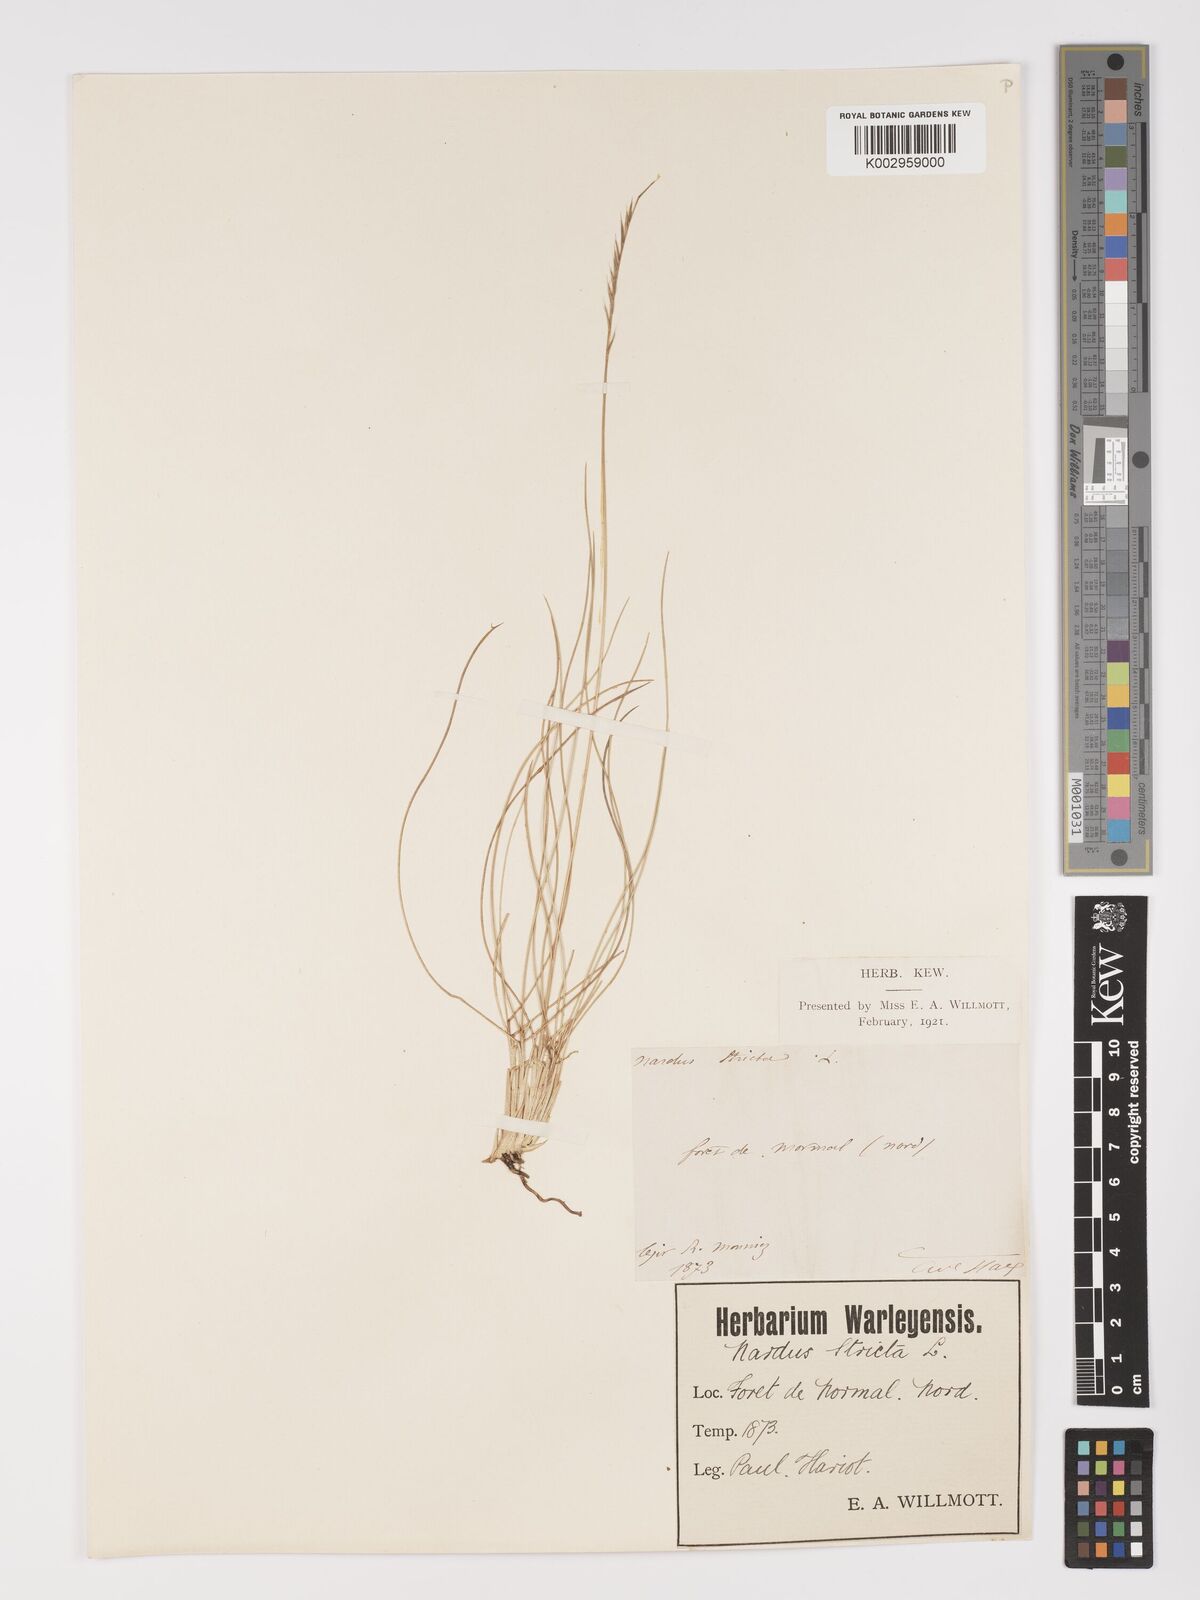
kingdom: Plantae
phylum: Tracheophyta
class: Liliopsida
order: Poales
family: Poaceae
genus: Nardus
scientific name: Nardus stricta
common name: Mat-grass
